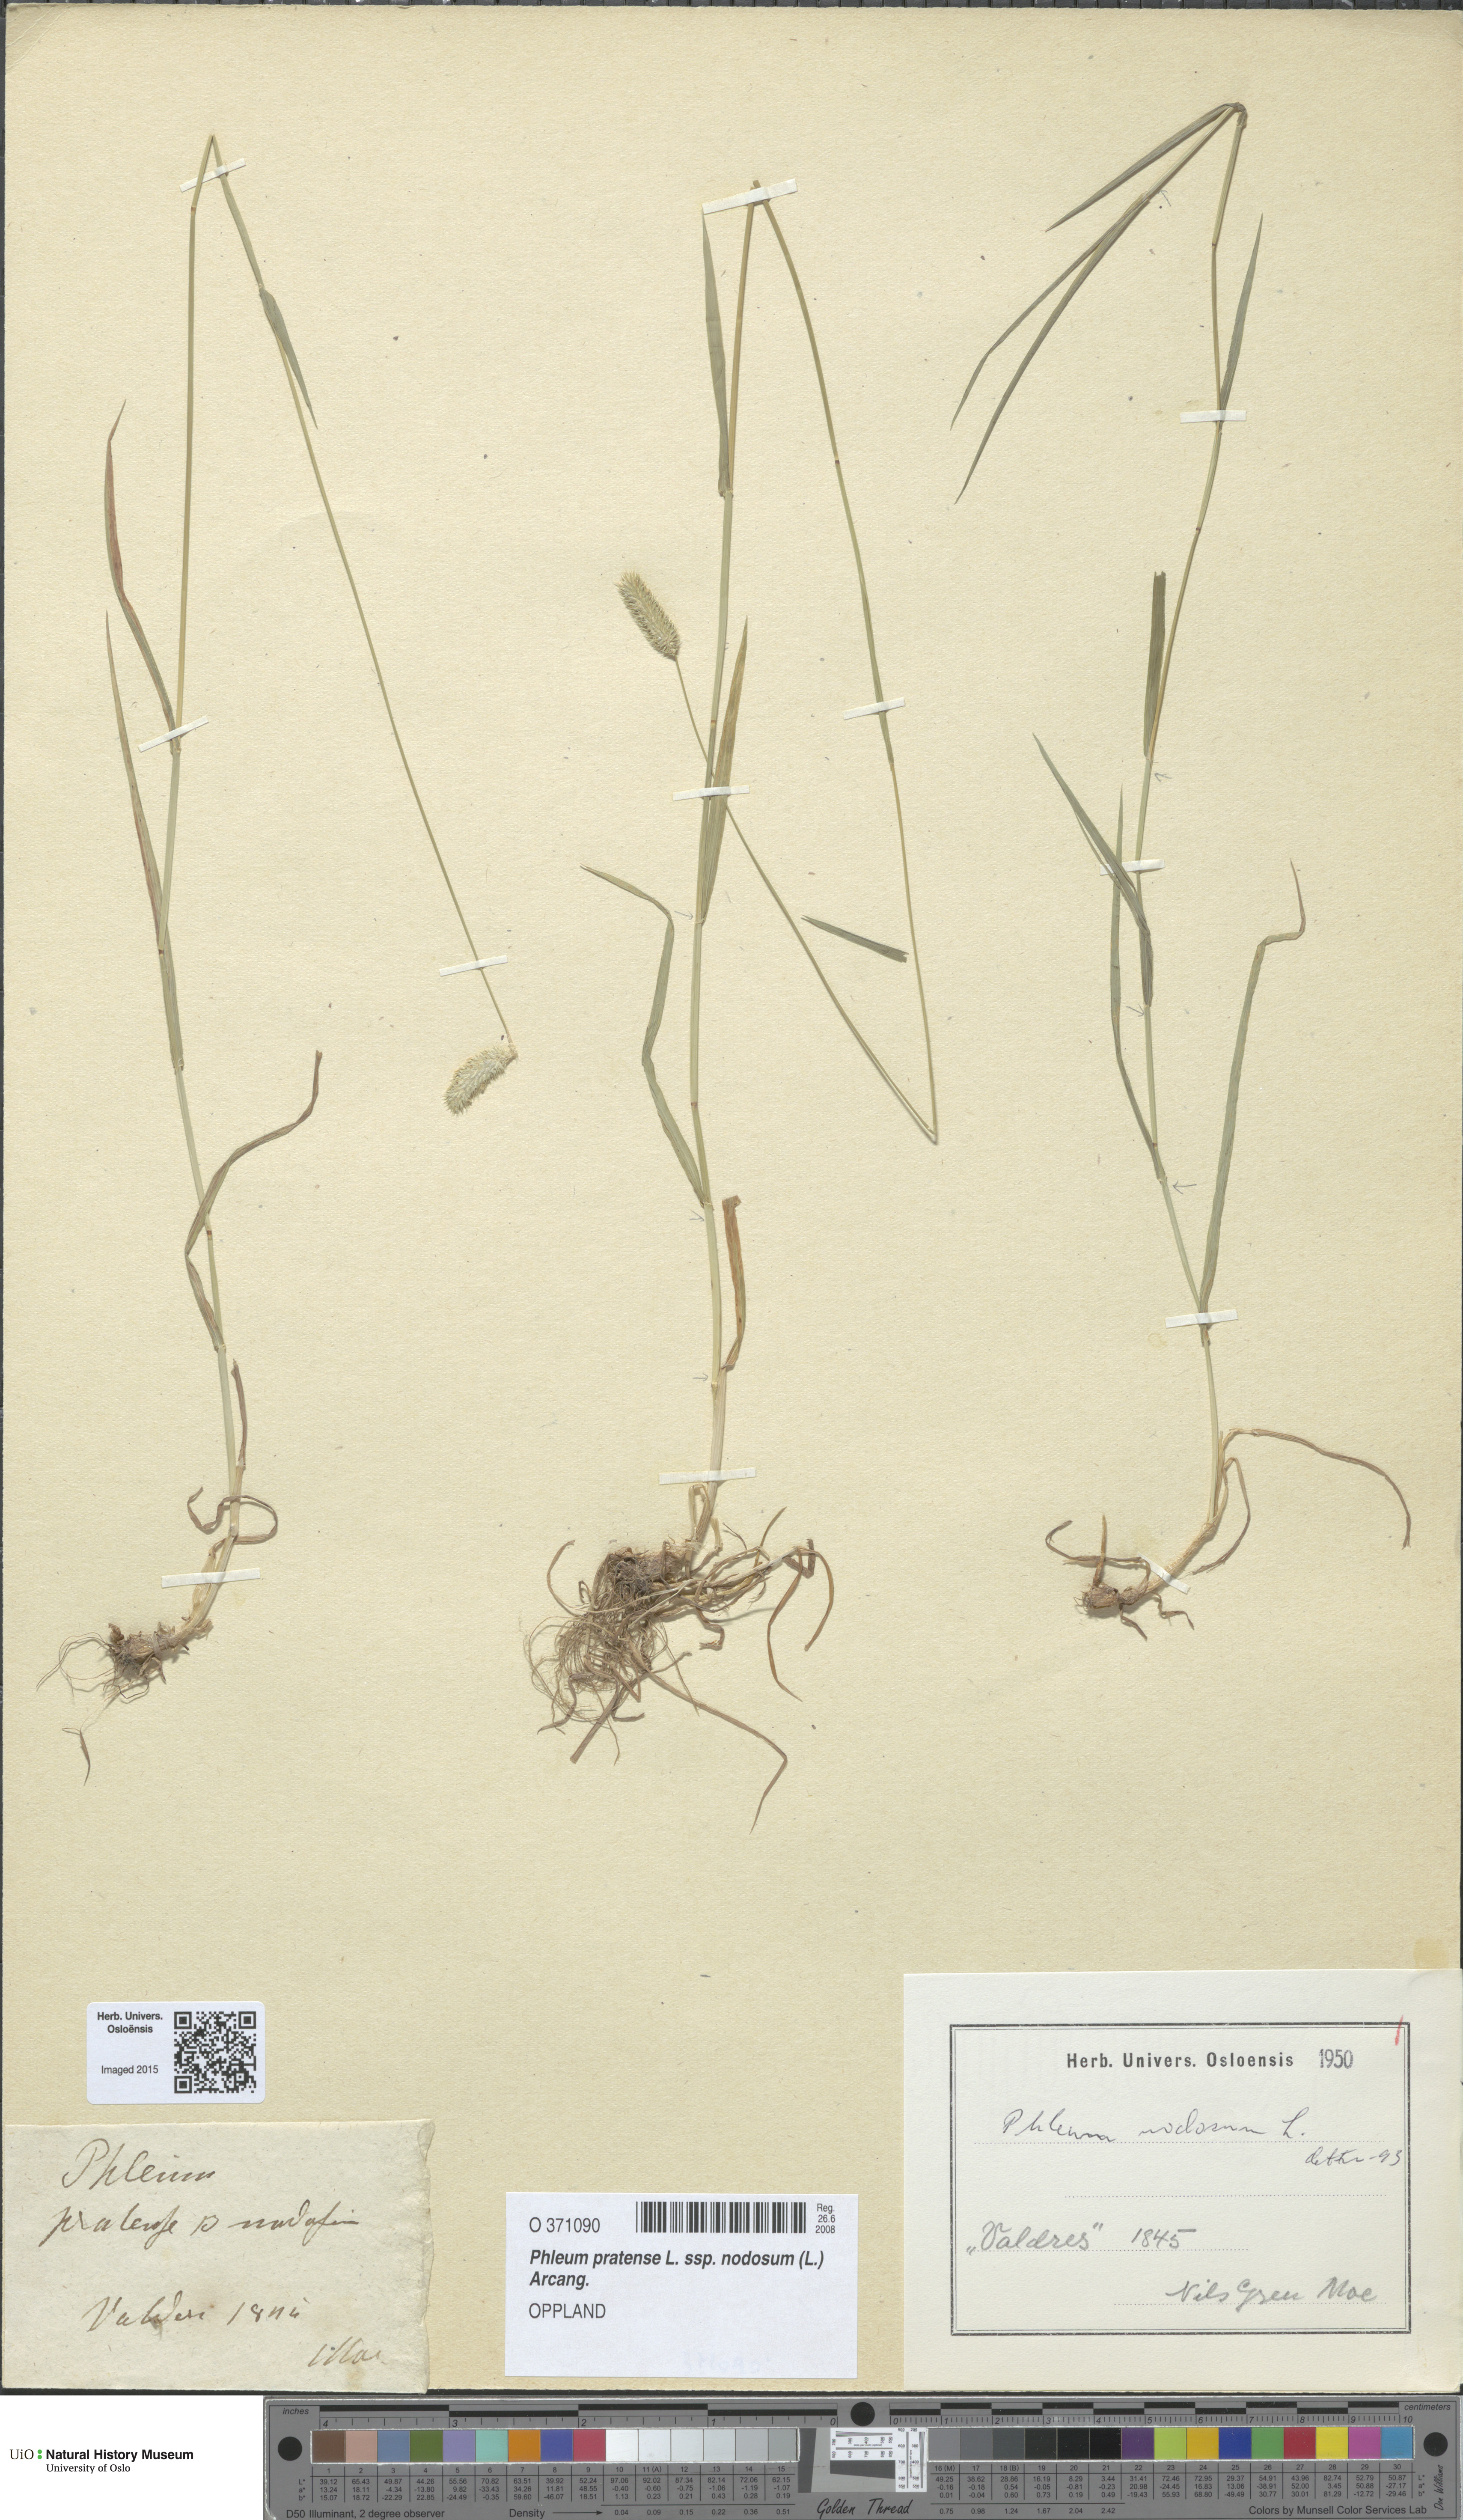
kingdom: Plantae
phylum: Tracheophyta
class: Liliopsida
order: Poales
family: Poaceae
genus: Phleum
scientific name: Phleum bertolonii
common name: Smaller cat's-tail
